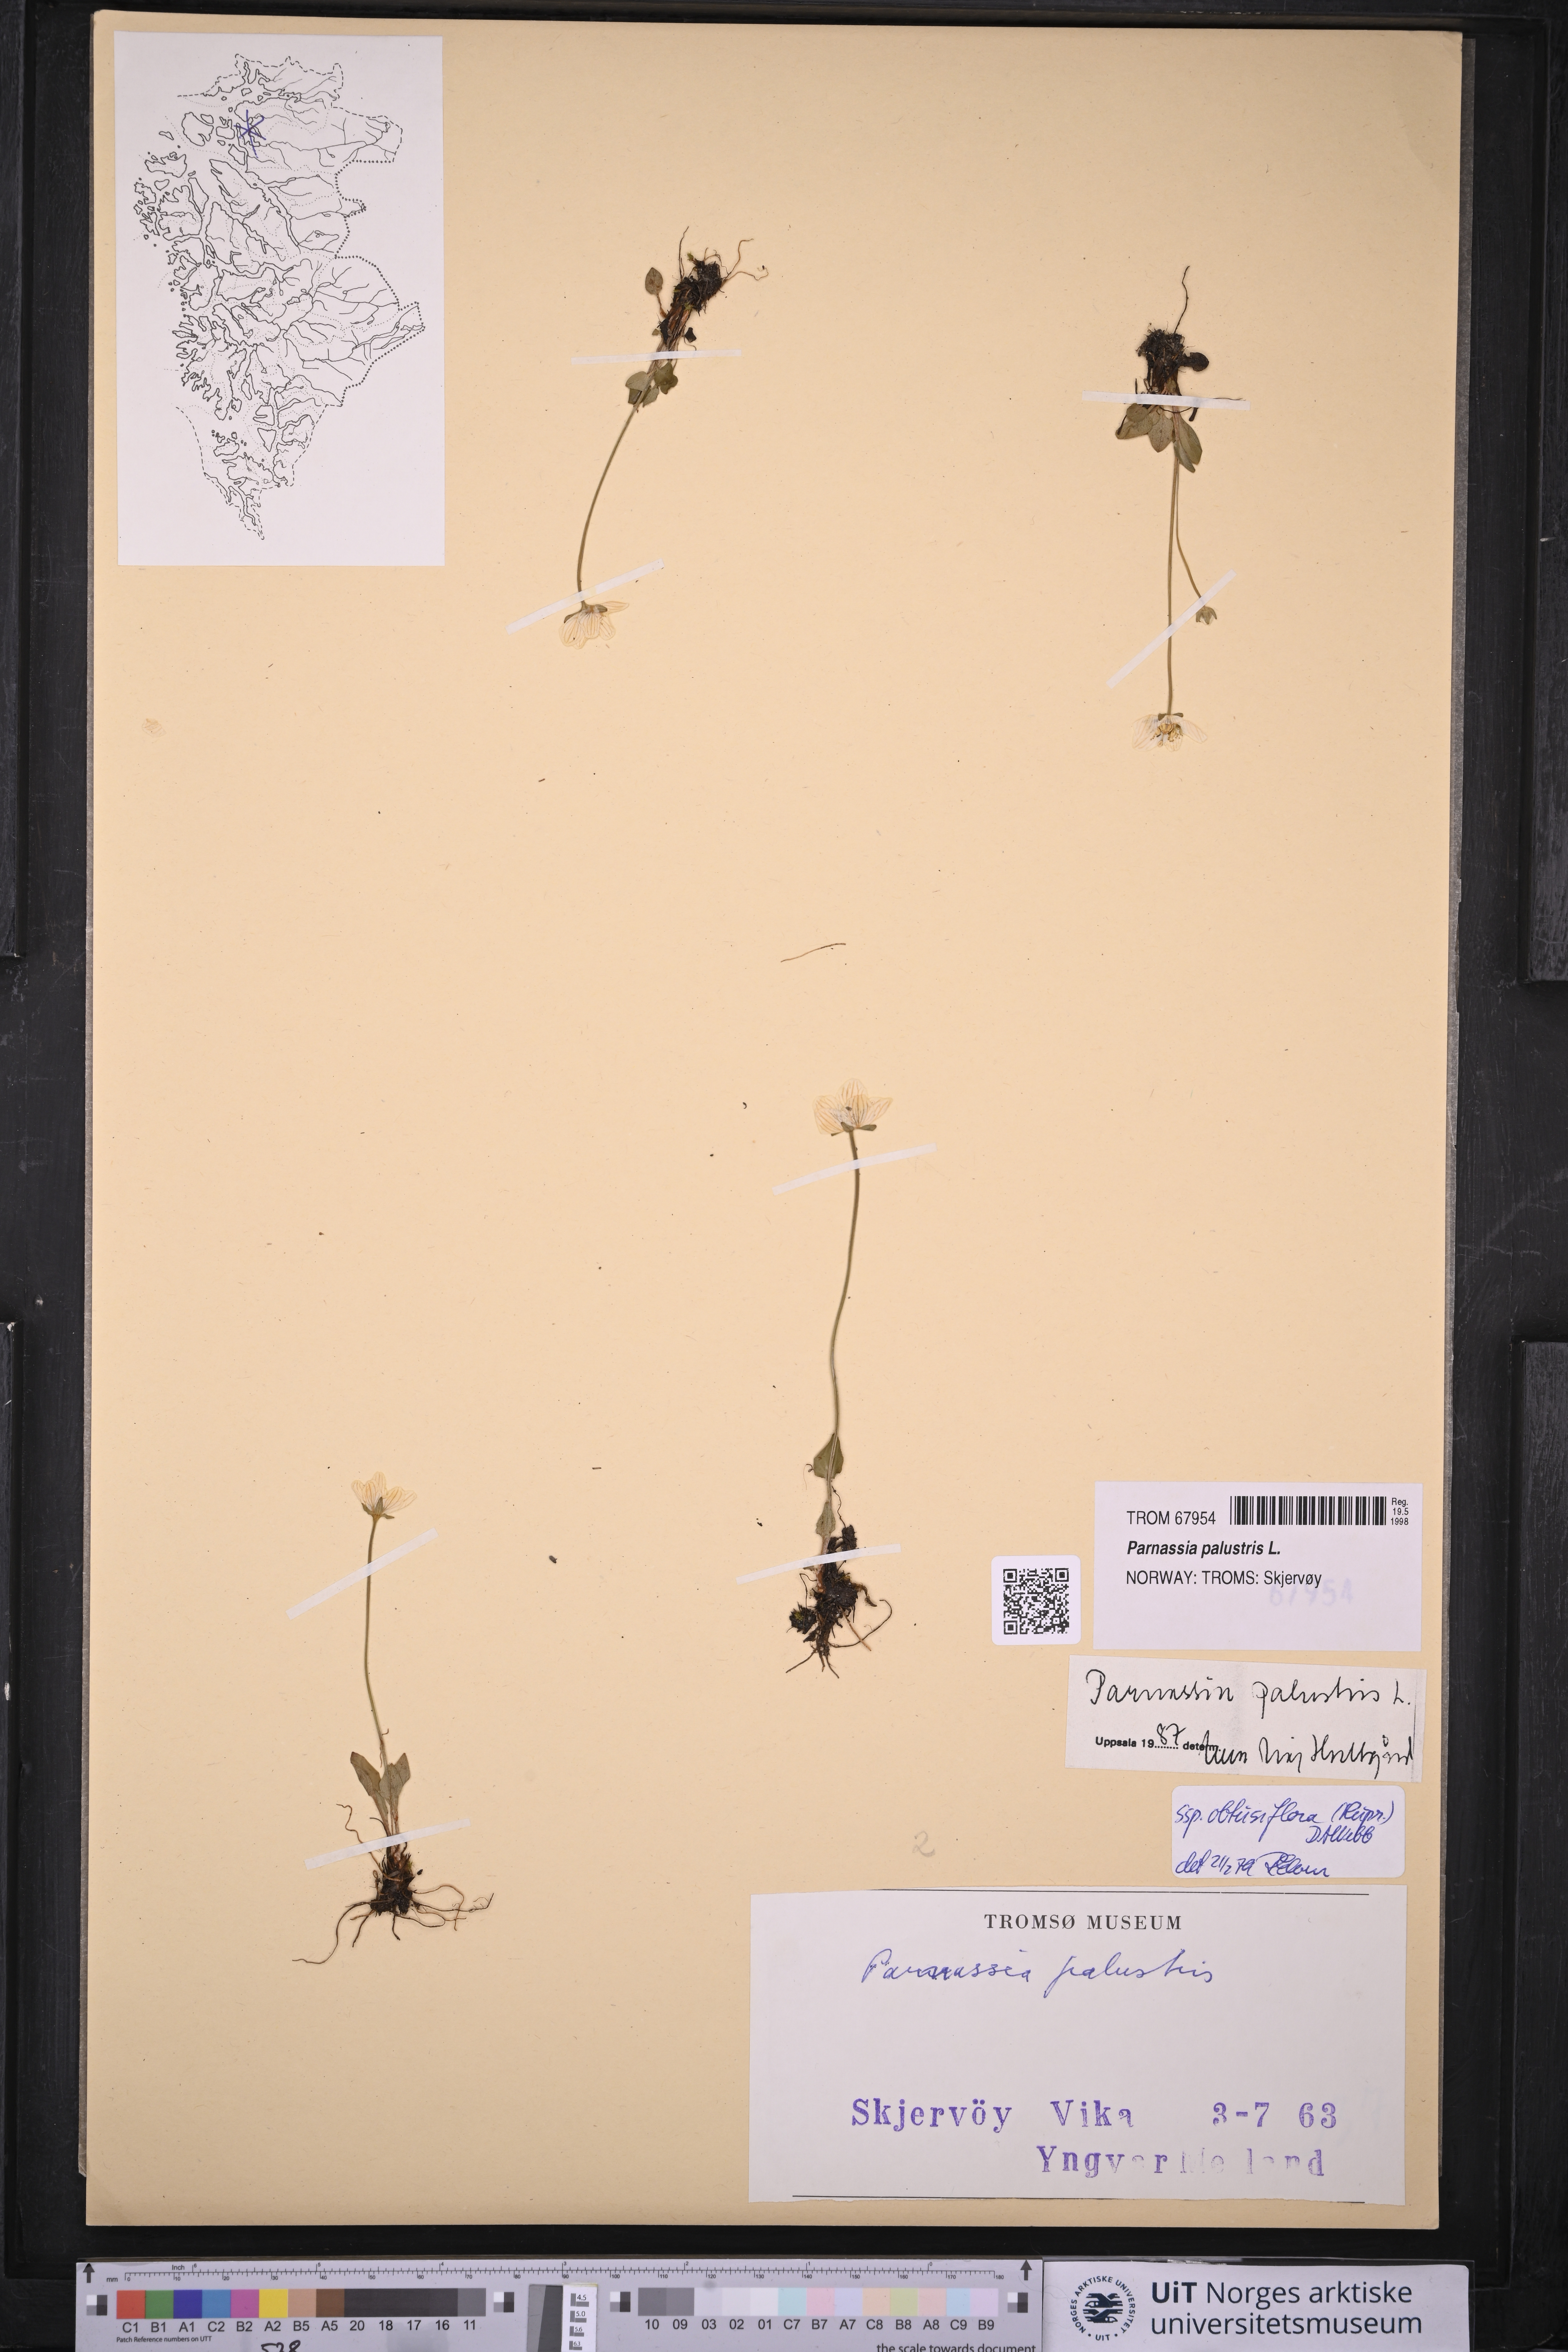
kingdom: Plantae
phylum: Tracheophyta
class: Magnoliopsida
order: Celastrales
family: Parnassiaceae
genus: Parnassia
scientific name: Parnassia palustris
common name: Grass-of-parnassus
